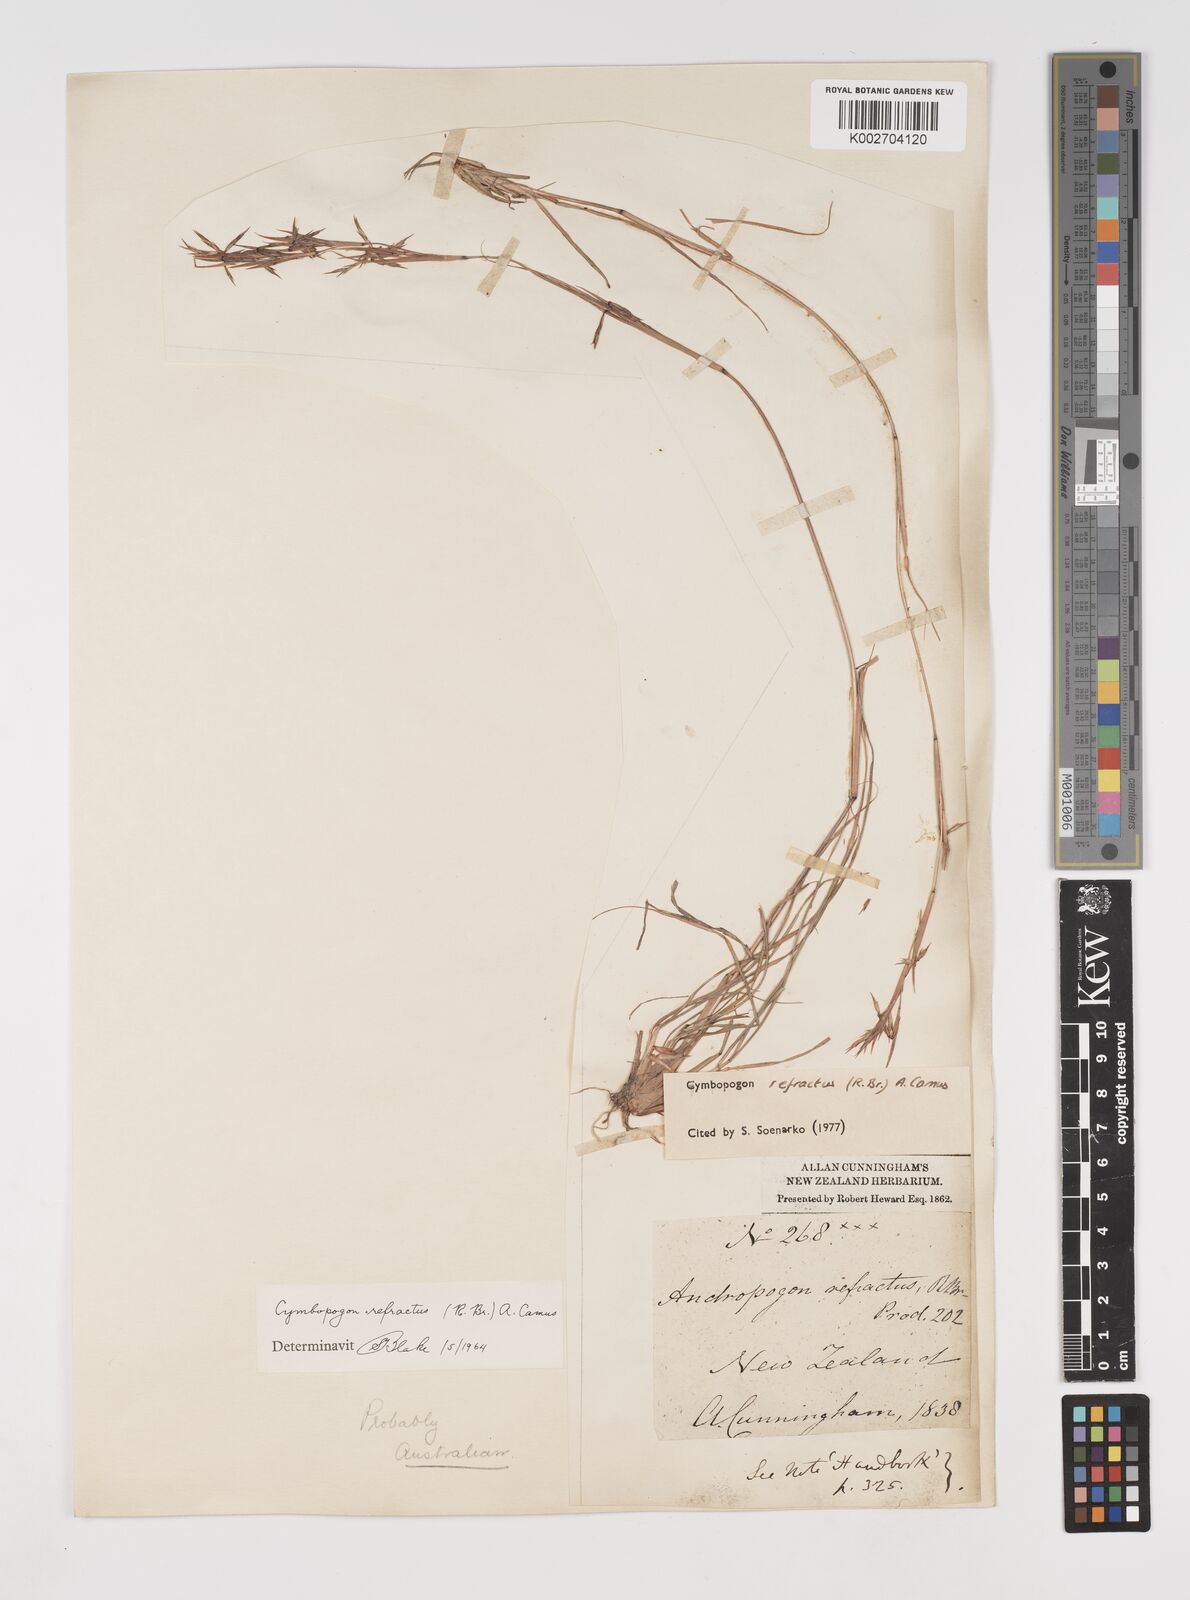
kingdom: Plantae
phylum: Tracheophyta
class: Liliopsida
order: Poales
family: Poaceae
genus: Cymbopogon
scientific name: Cymbopogon refractus
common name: Barbwire grass
